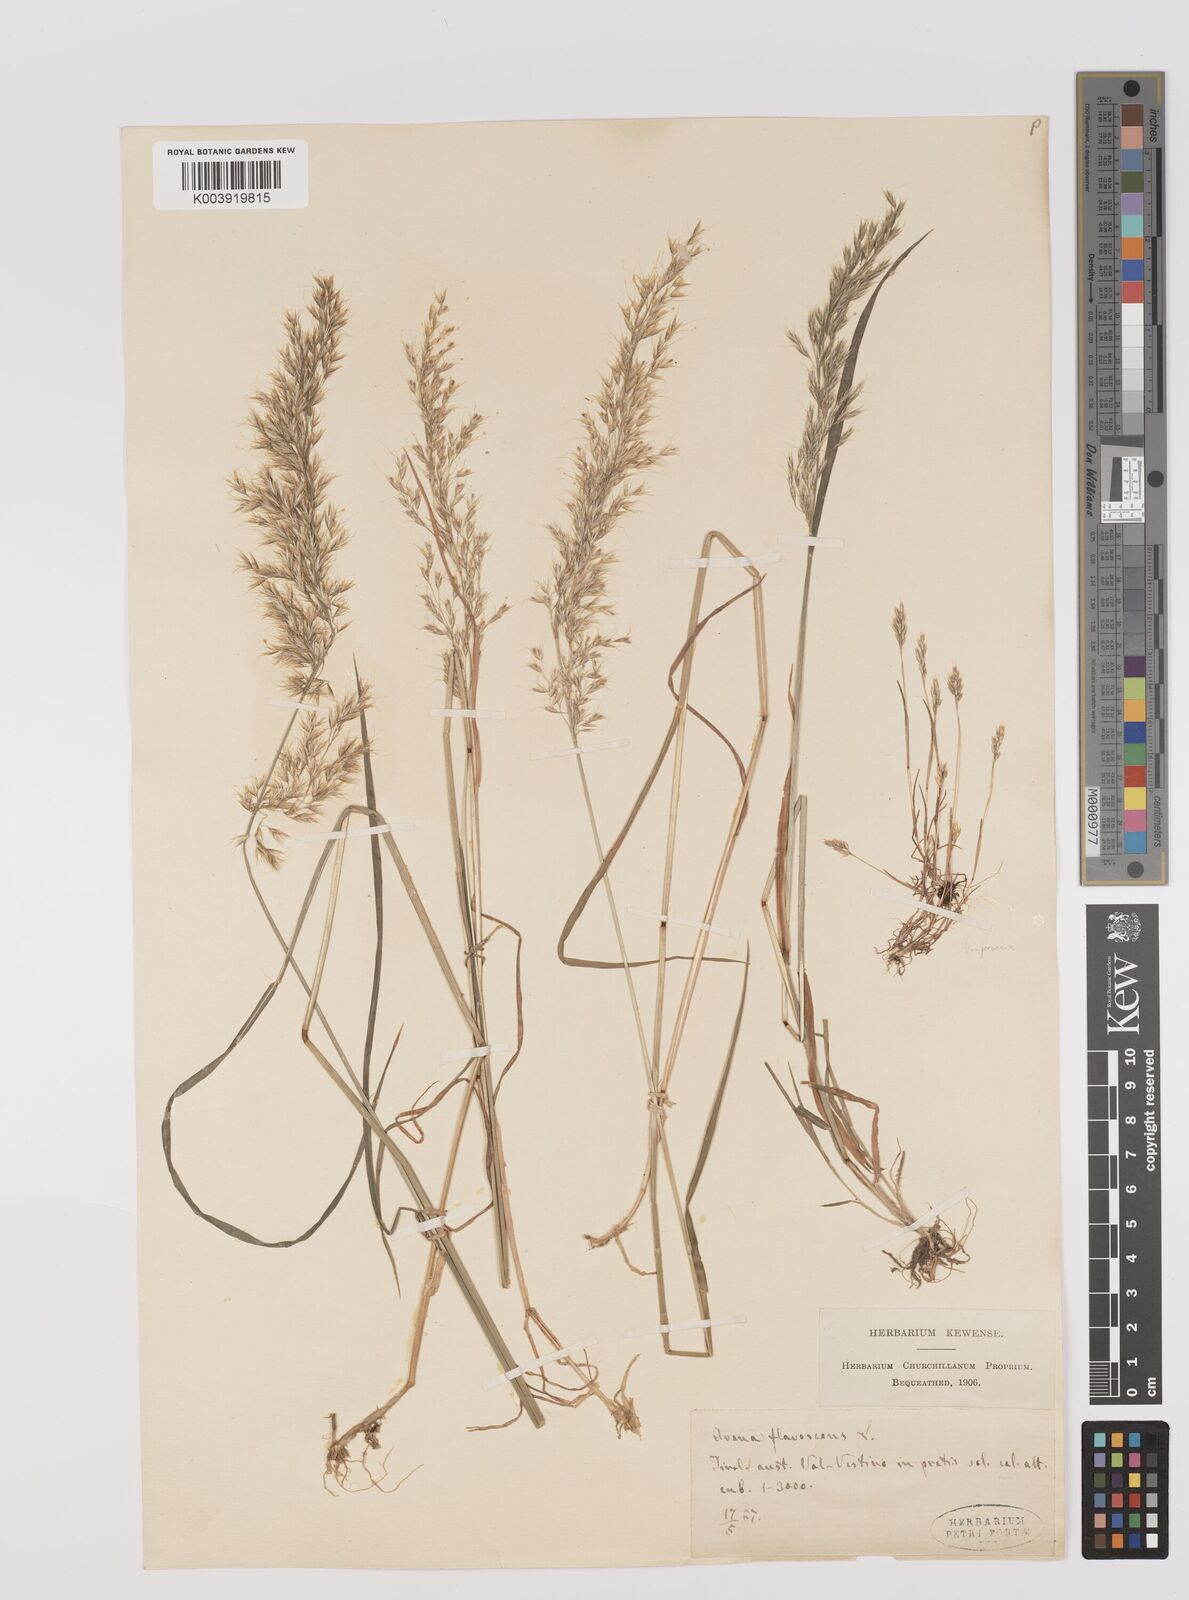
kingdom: Plantae
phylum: Tracheophyta
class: Liliopsida
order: Poales
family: Poaceae
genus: Trisetum
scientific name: Trisetum flavescens
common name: Yellow oat-grass
